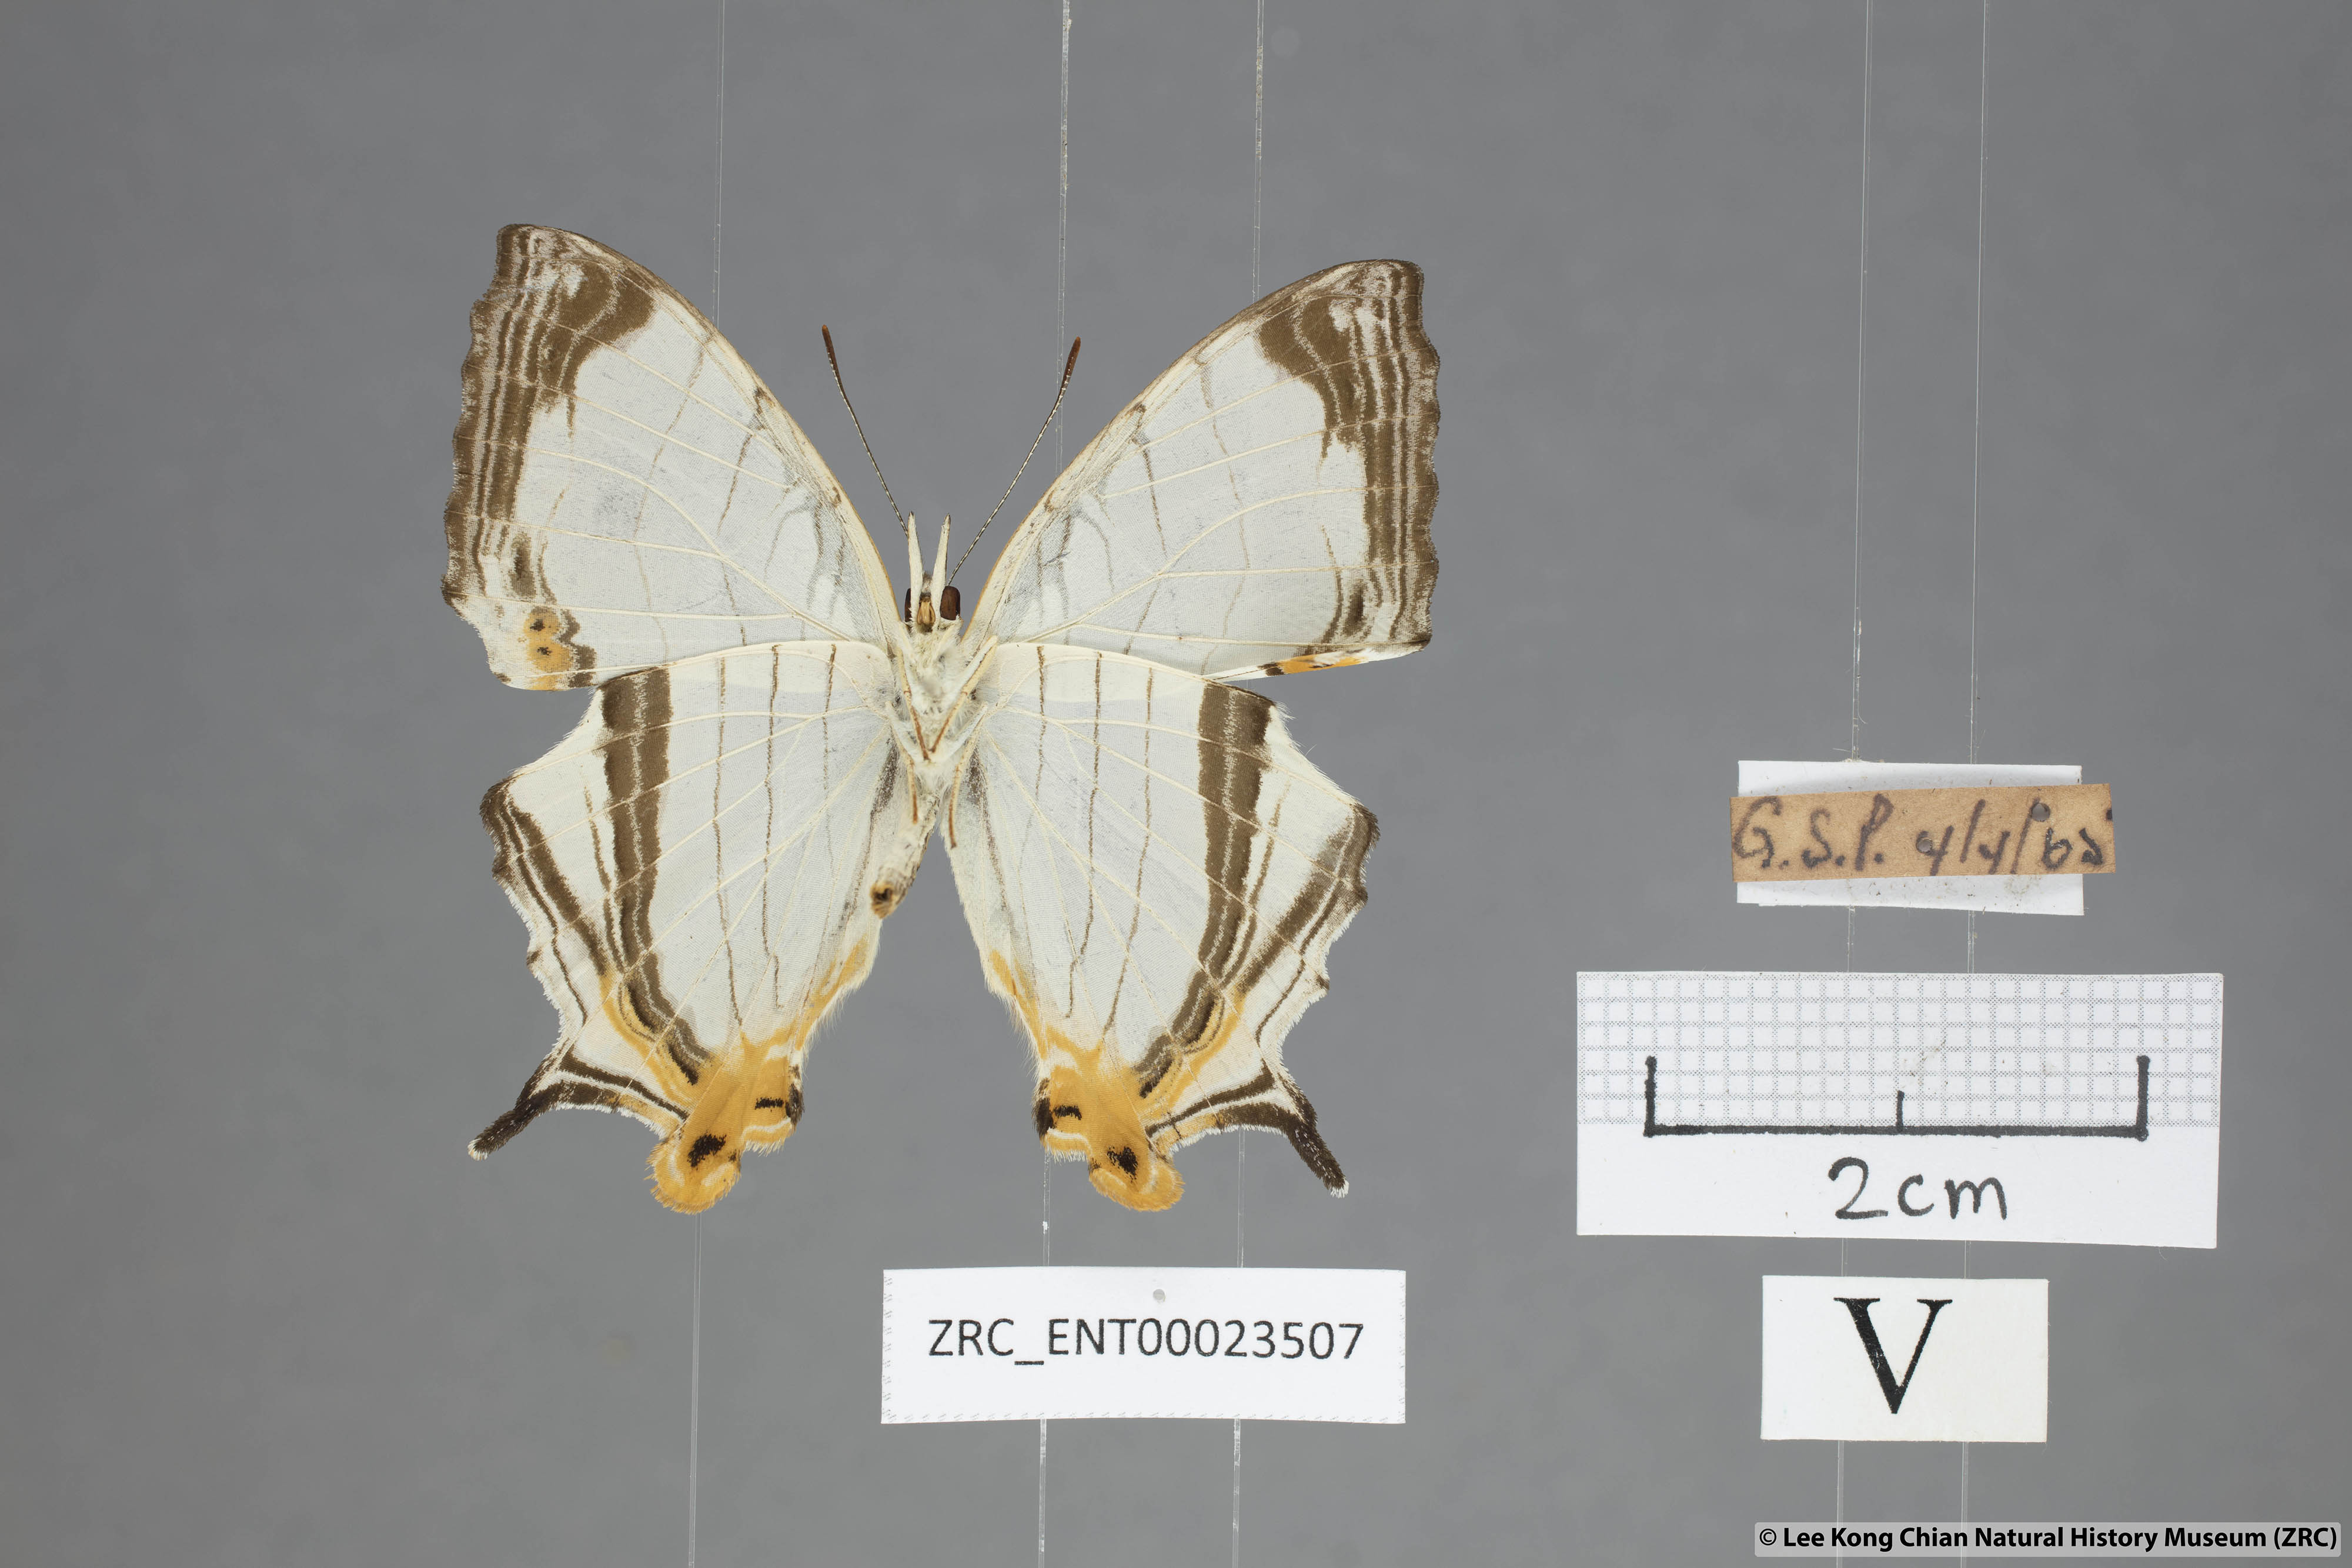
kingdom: Animalia
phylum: Arthropoda
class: Insecta
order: Lepidoptera
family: Nymphalidae
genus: Cyrestis
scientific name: Cyrestis nivea
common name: Straight line mapwing
